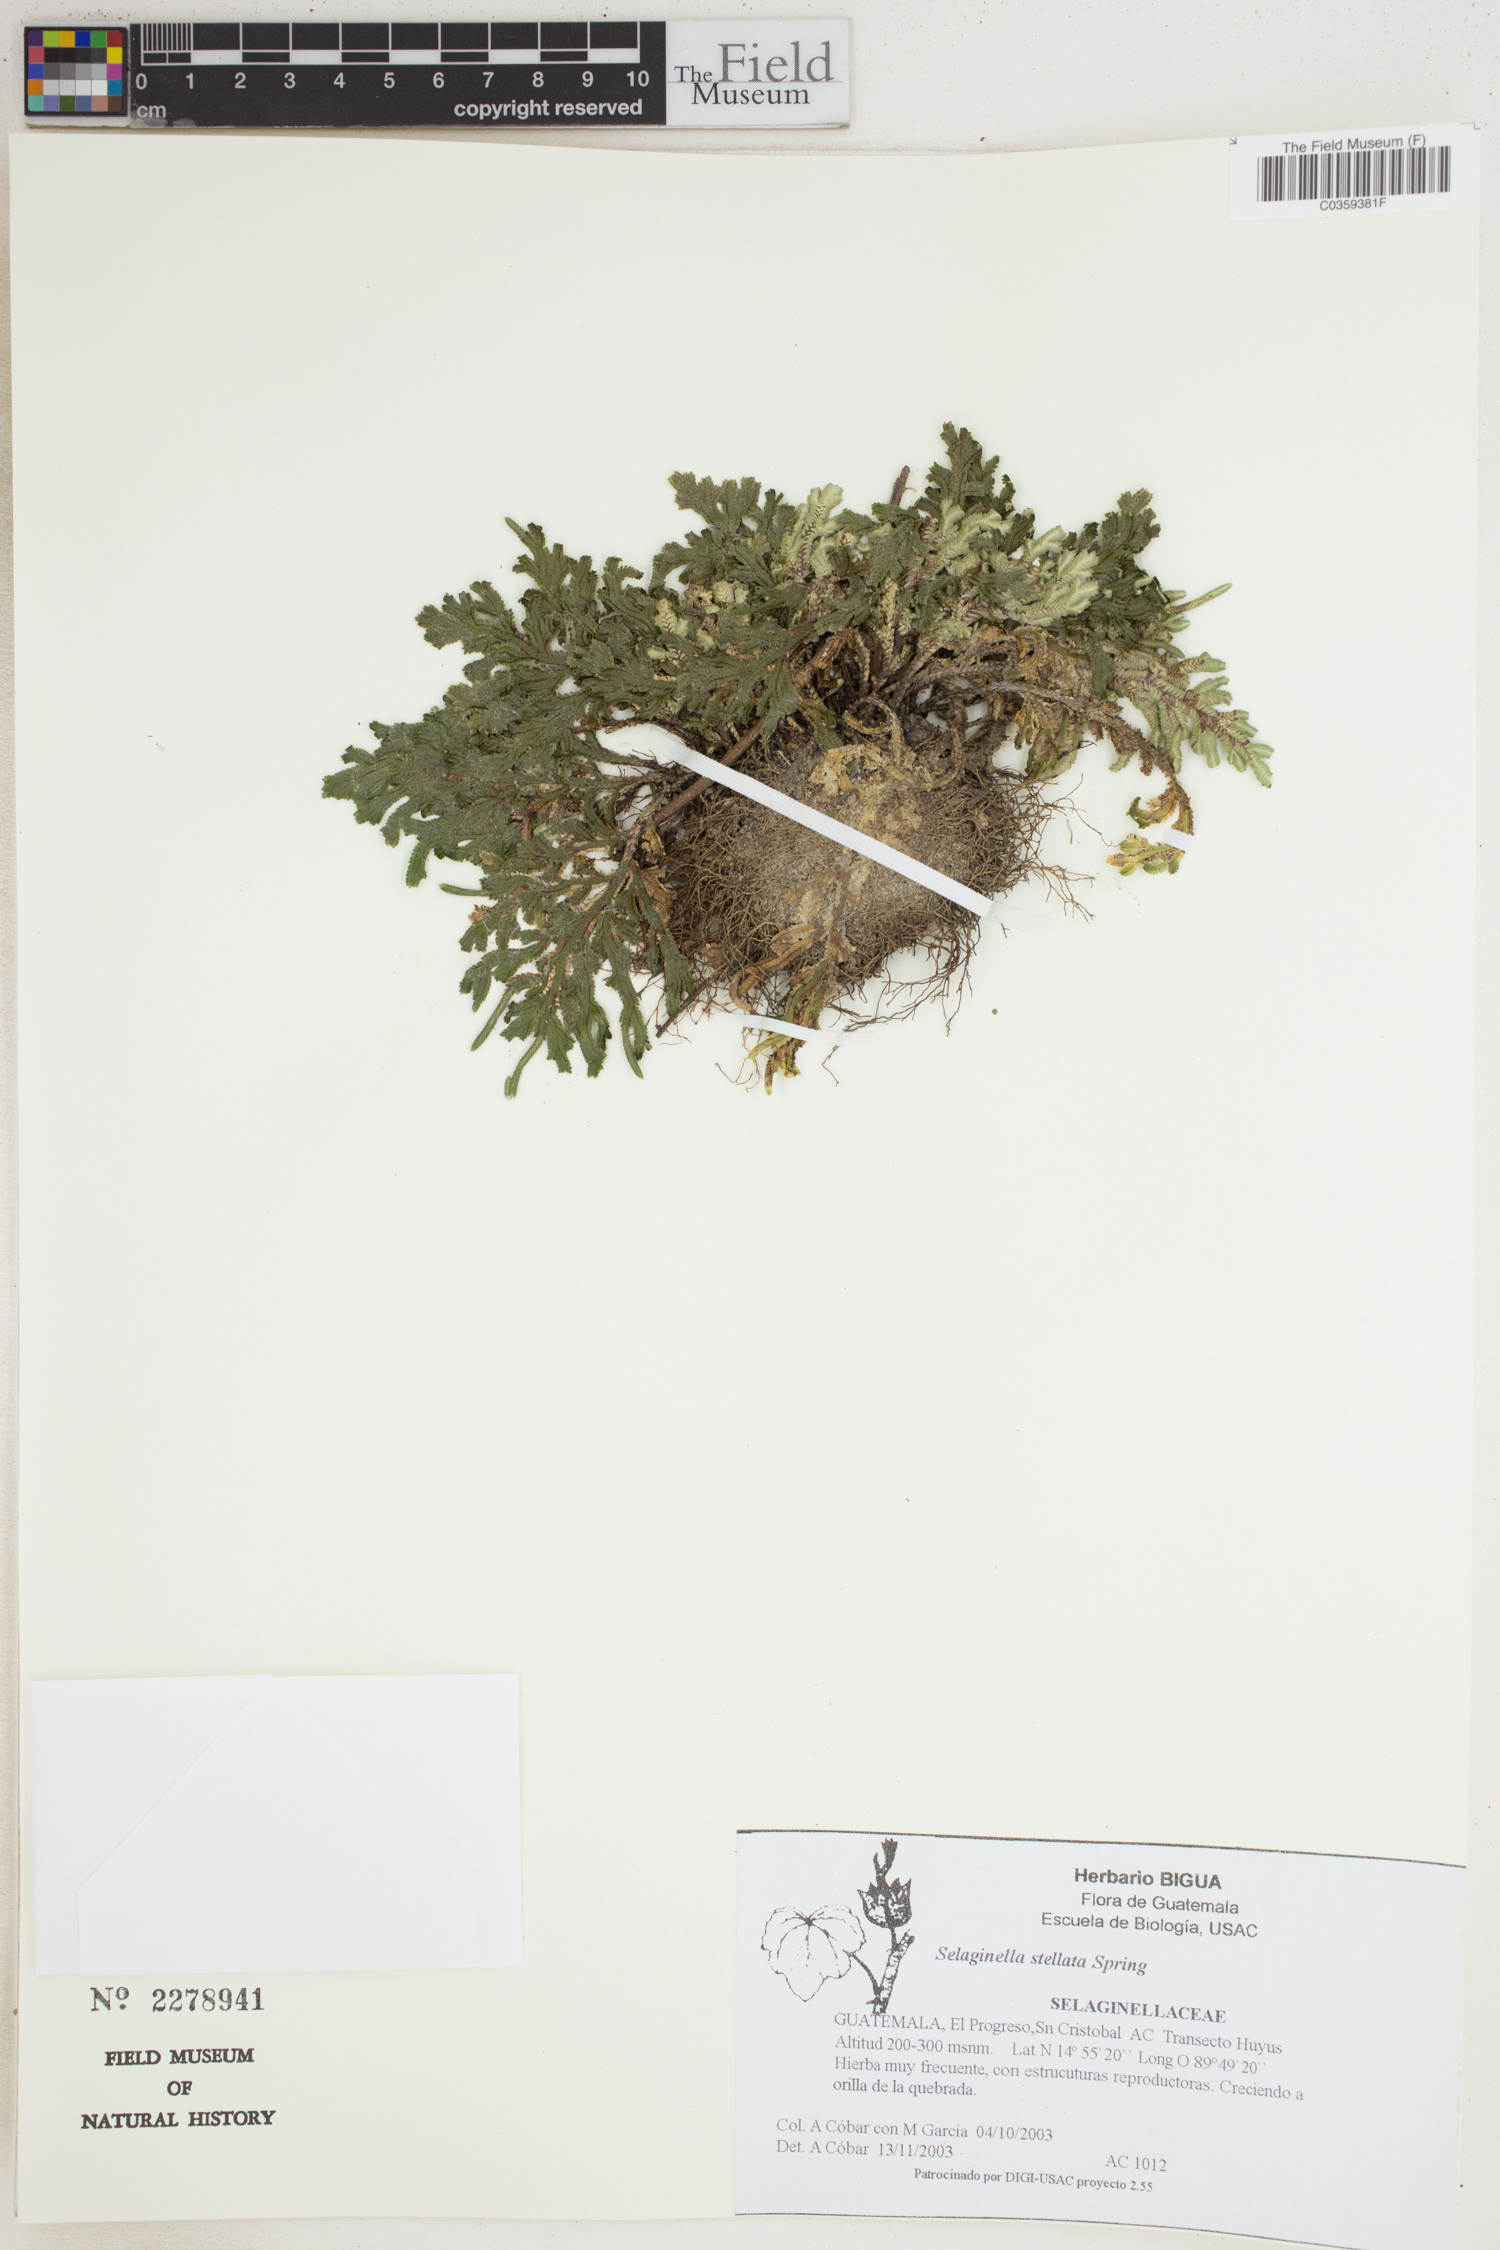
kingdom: Plantae
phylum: Tracheophyta
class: Lycopodiopsida
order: Selaginellales
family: Selaginellaceae
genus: Selaginella
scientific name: Selaginella stellata
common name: Starry spikemoss
